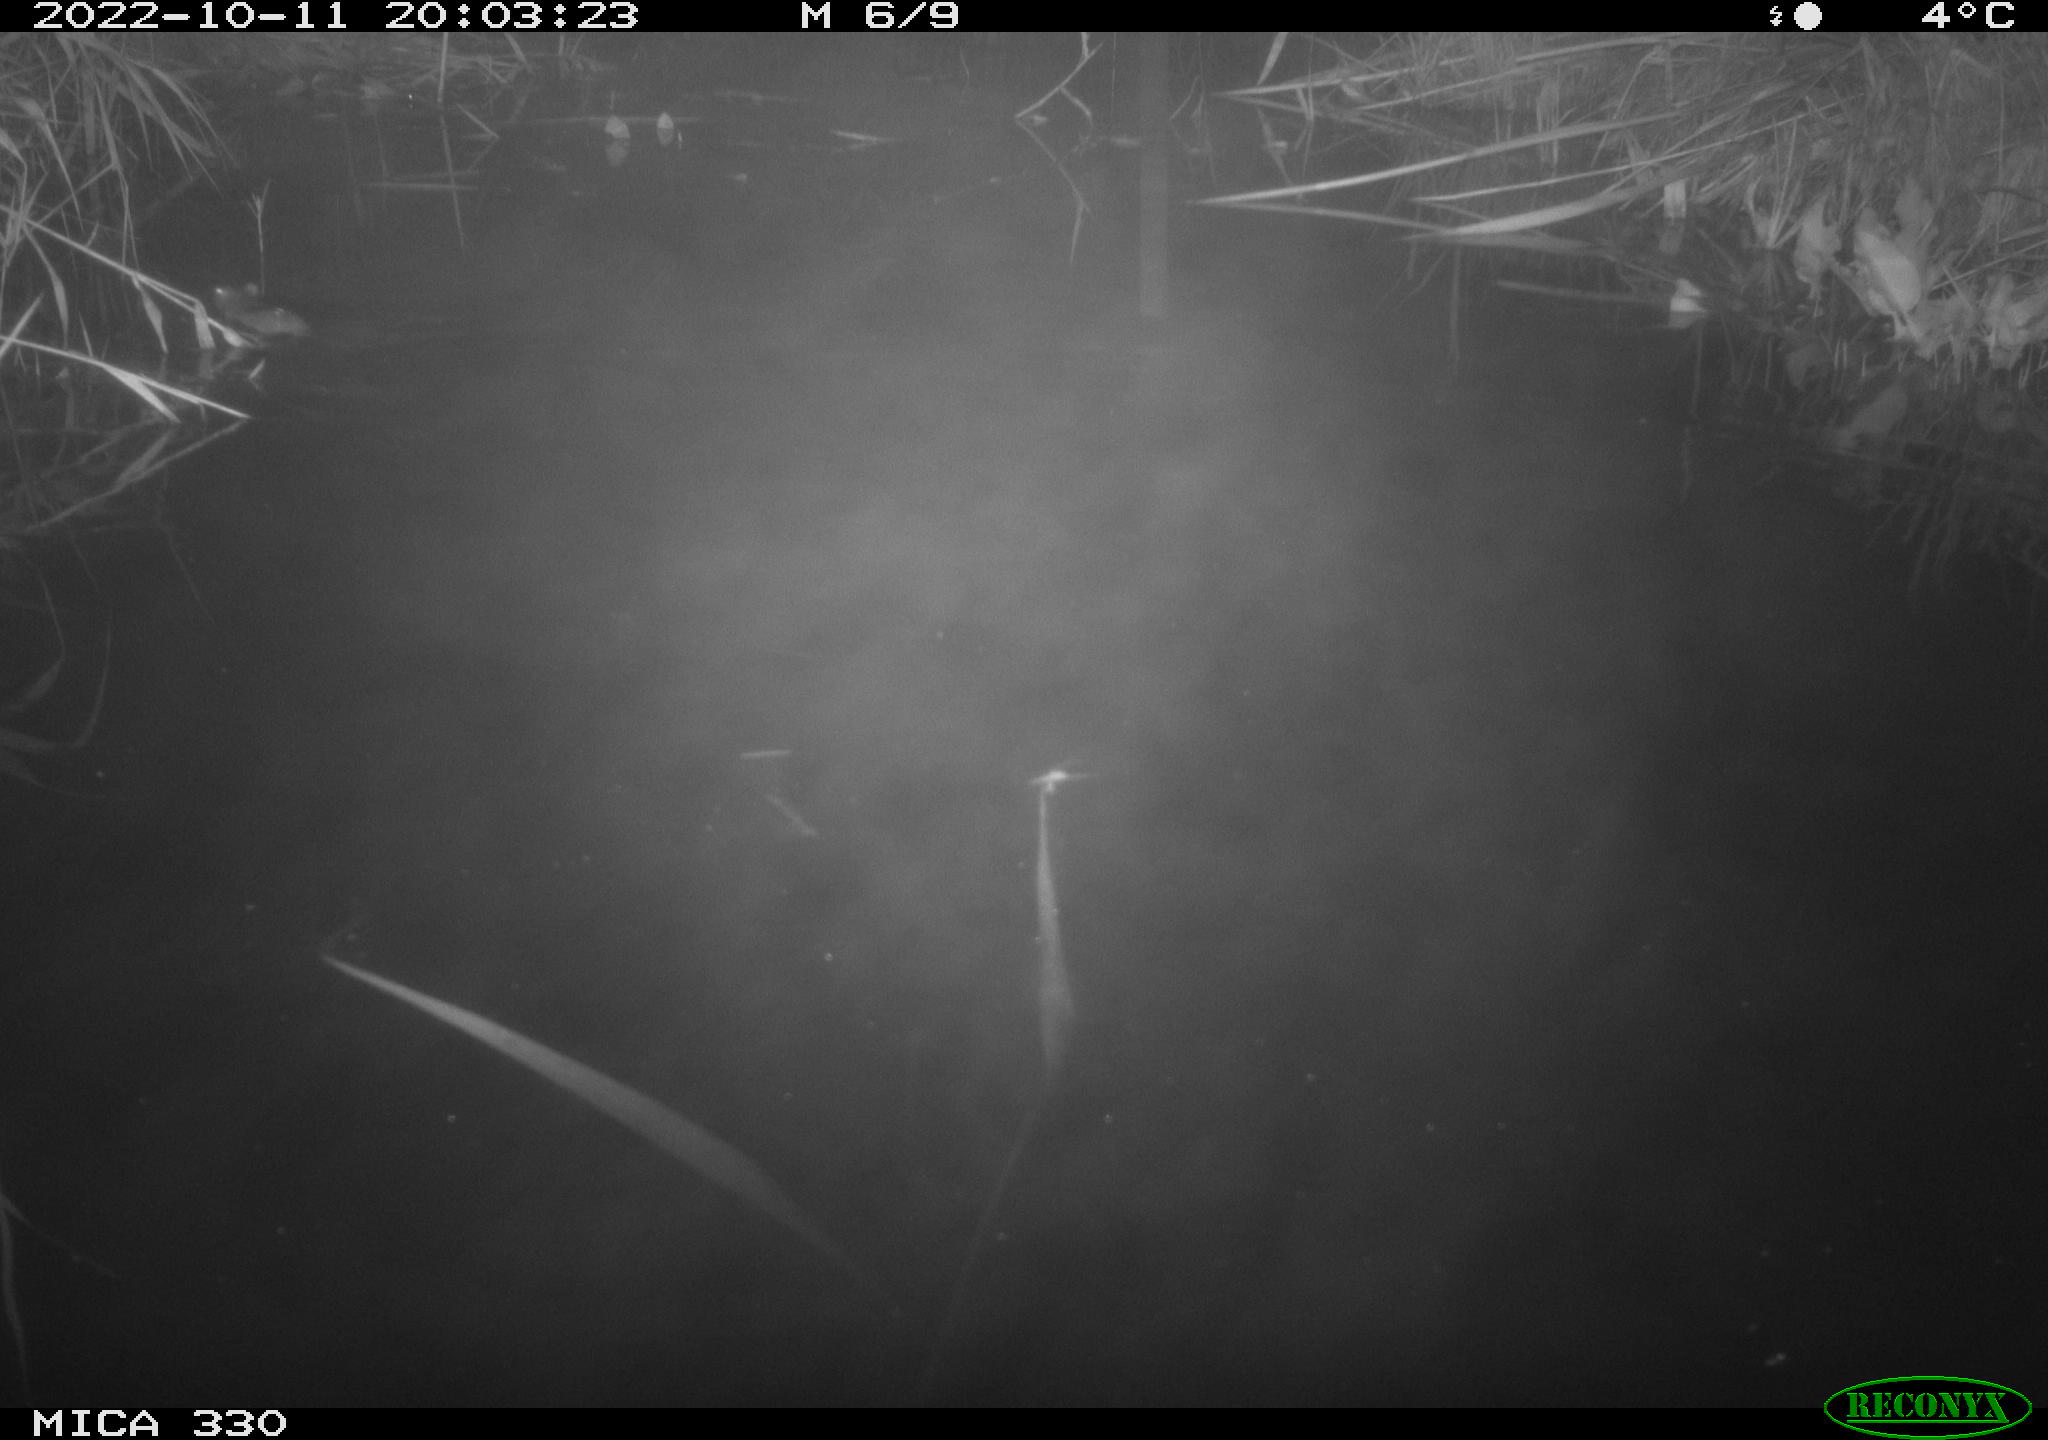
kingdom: Animalia
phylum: Chordata
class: Mammalia
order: Rodentia
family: Muridae
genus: Rattus
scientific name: Rattus norvegicus
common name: Brown rat
